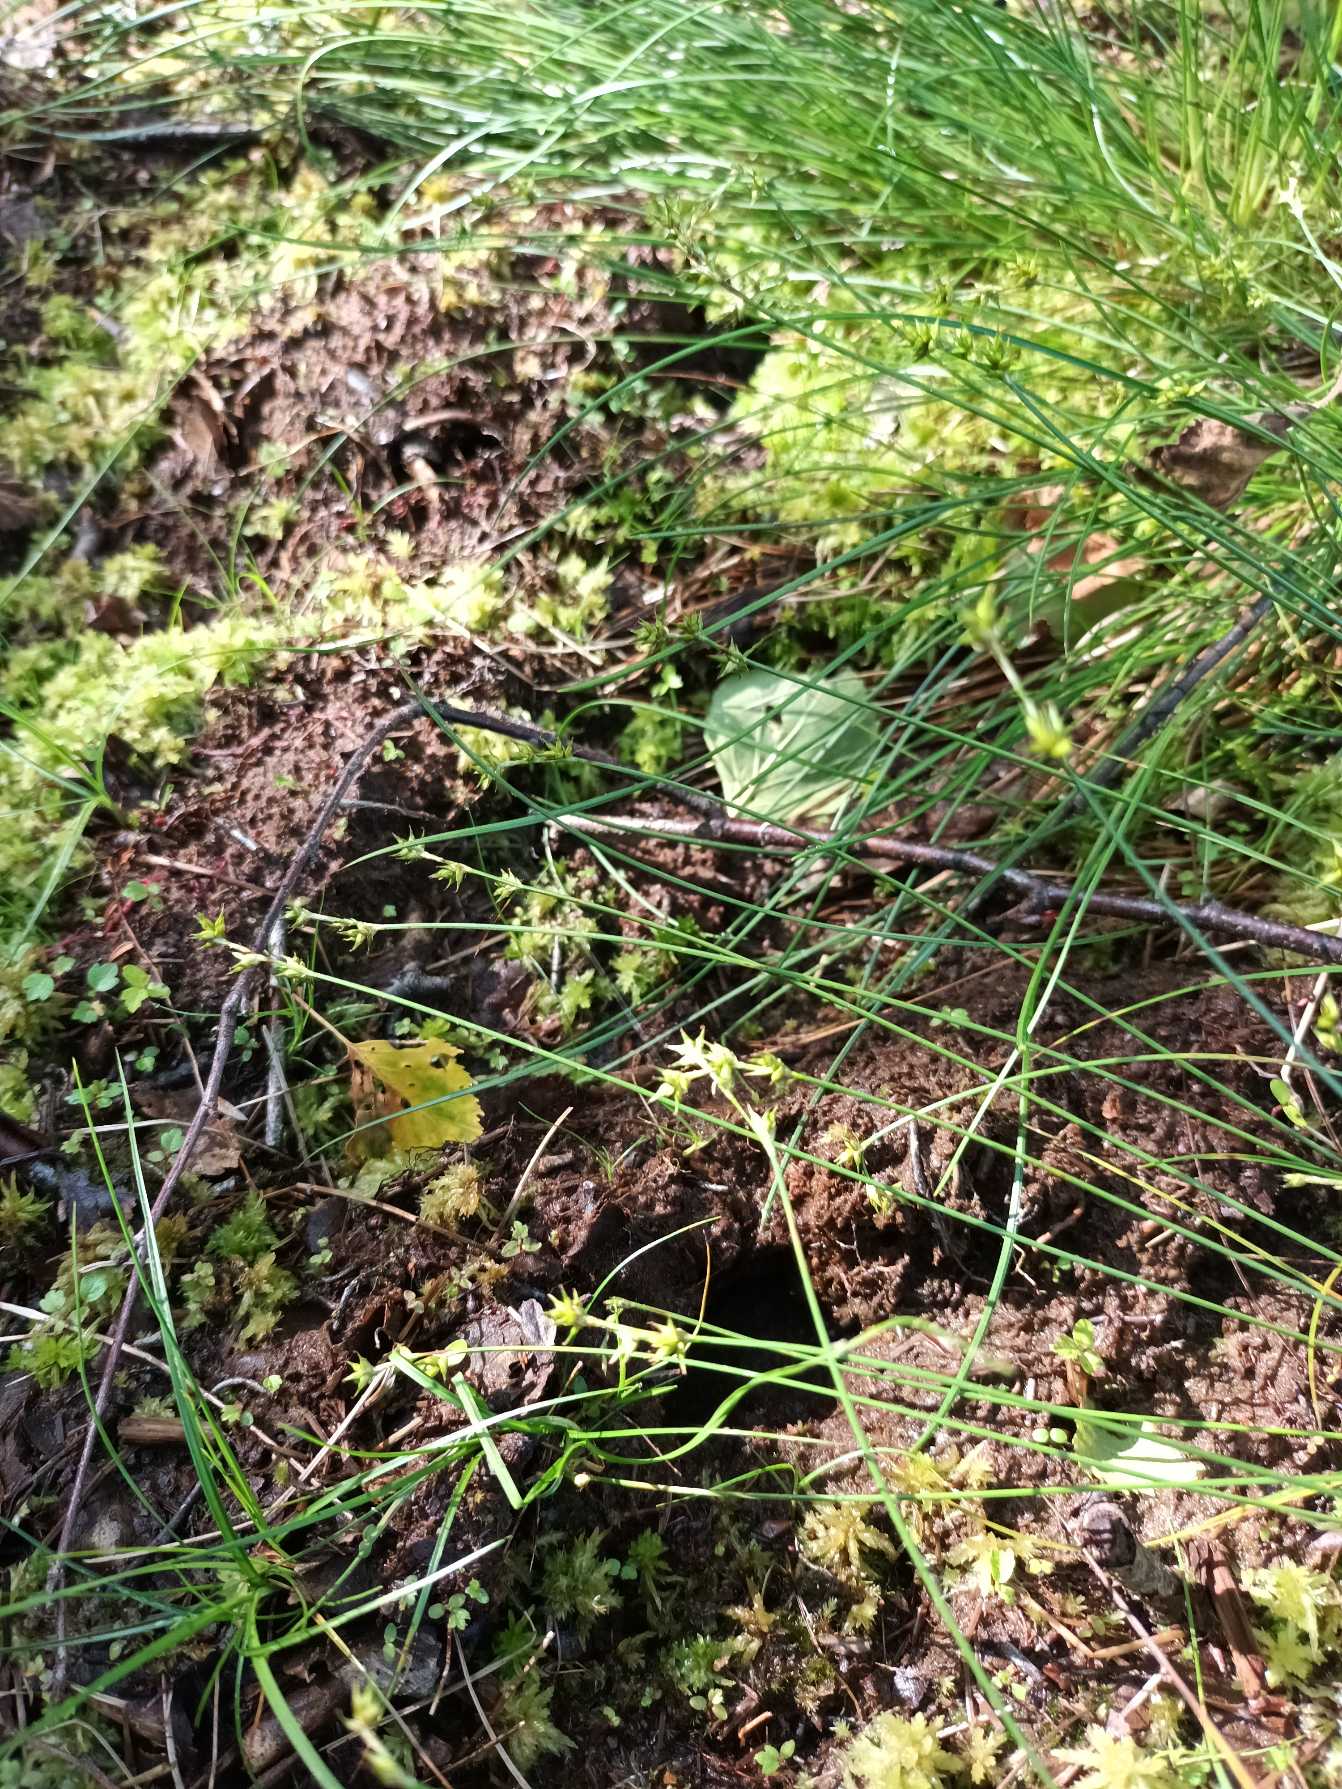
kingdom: Plantae
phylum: Tracheophyta
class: Liliopsida
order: Poales
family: Cyperaceae
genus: Carex
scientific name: Carex echinata
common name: Stjerne-star
